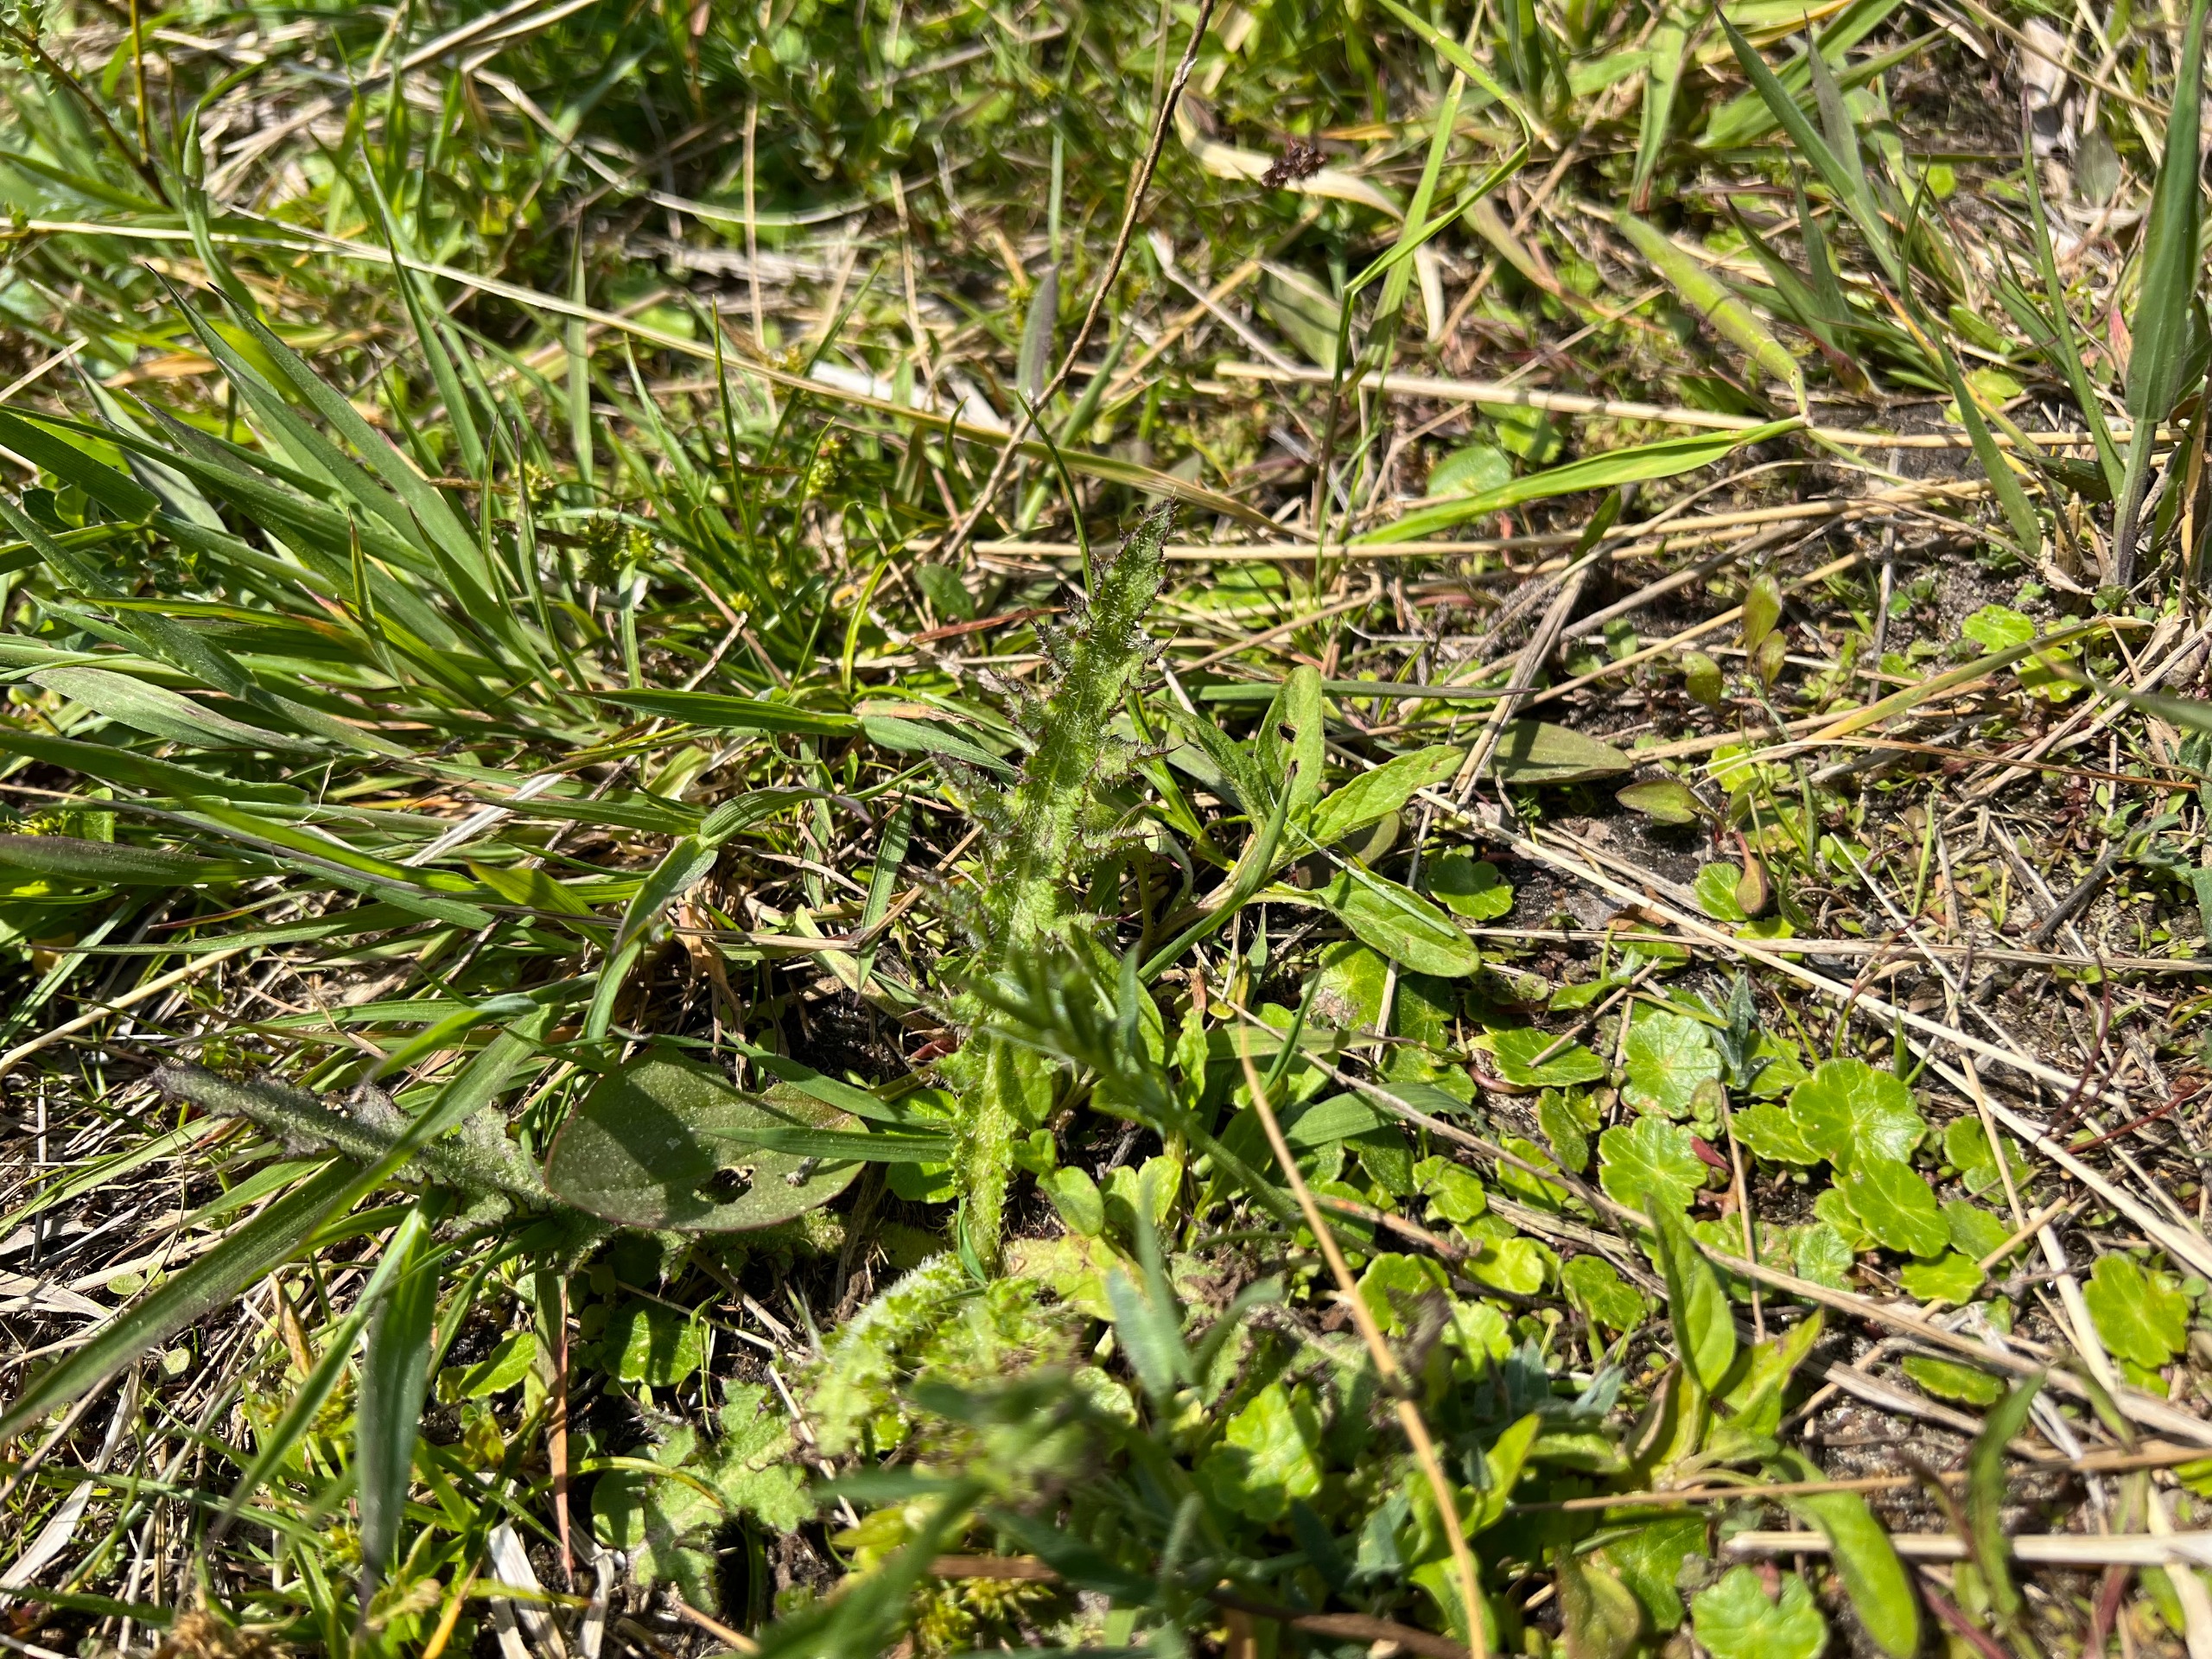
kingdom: Plantae
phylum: Tracheophyta
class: Magnoliopsida
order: Asterales
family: Asteraceae
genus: Cirsium
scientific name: Cirsium palustre
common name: Kær-tidsel
